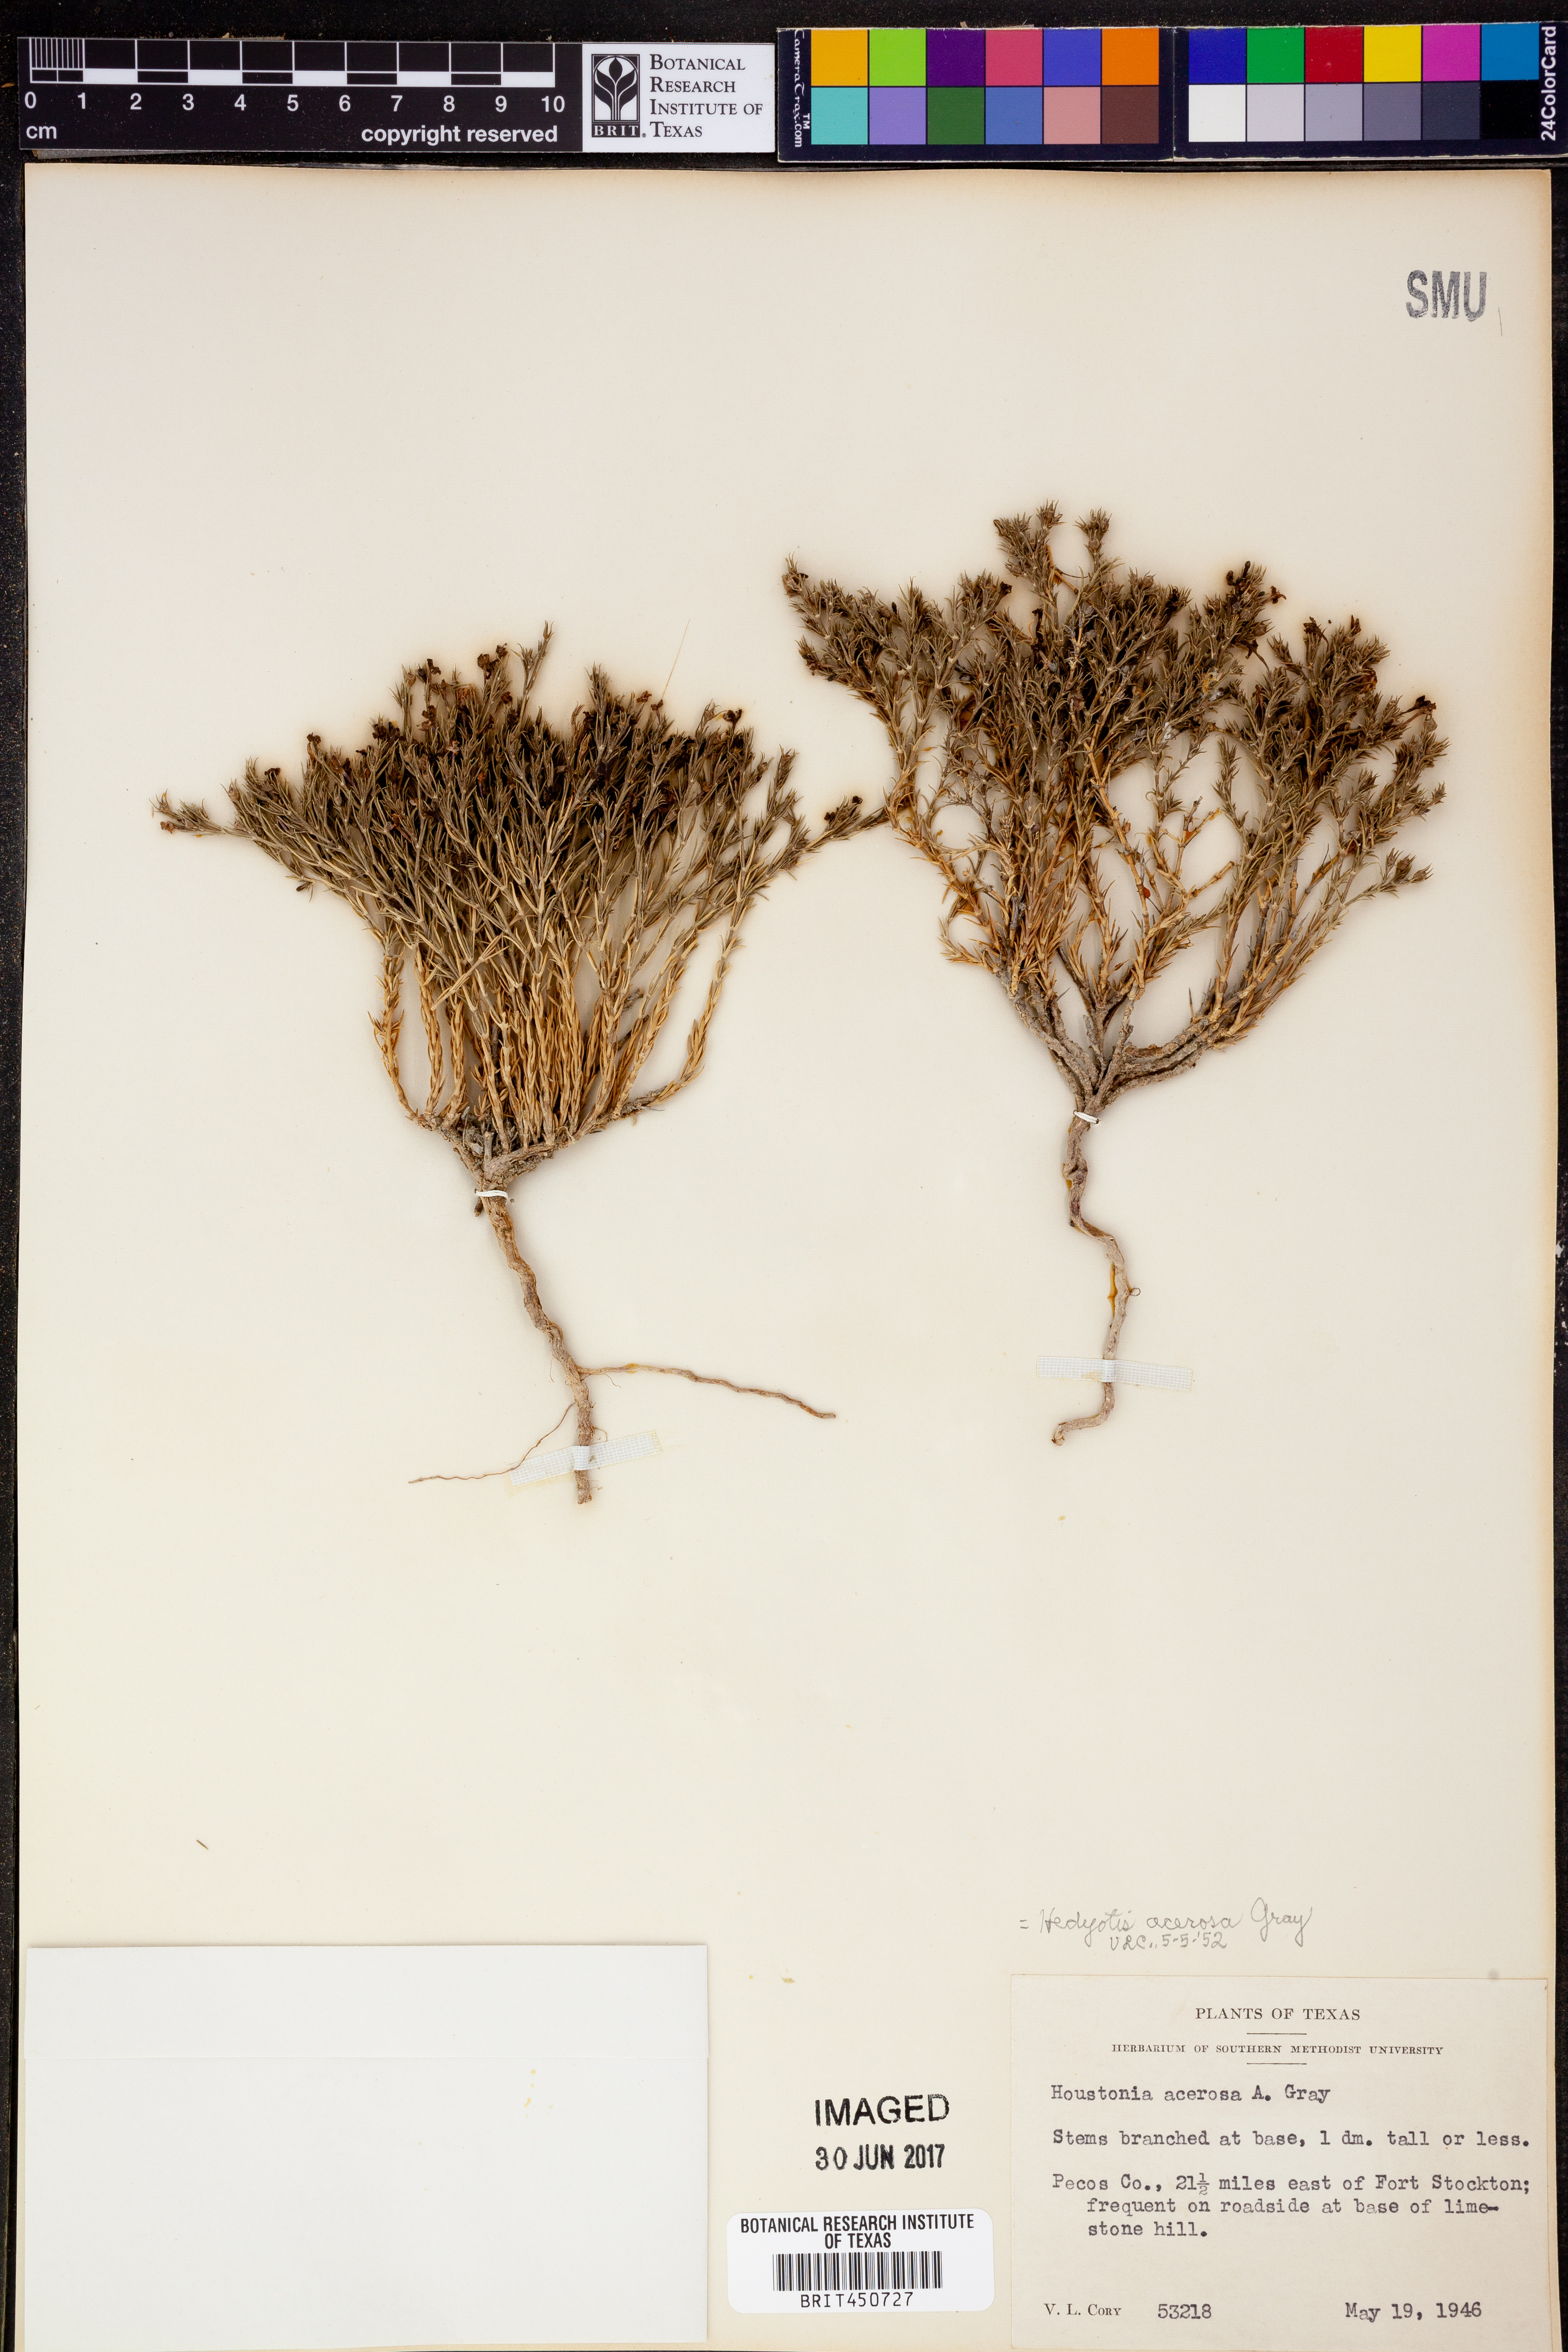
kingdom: Plantae
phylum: Tracheophyta
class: Magnoliopsida
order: Gentianales
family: Rubiaceae
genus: Houstonia
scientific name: Houstonia acerosa
